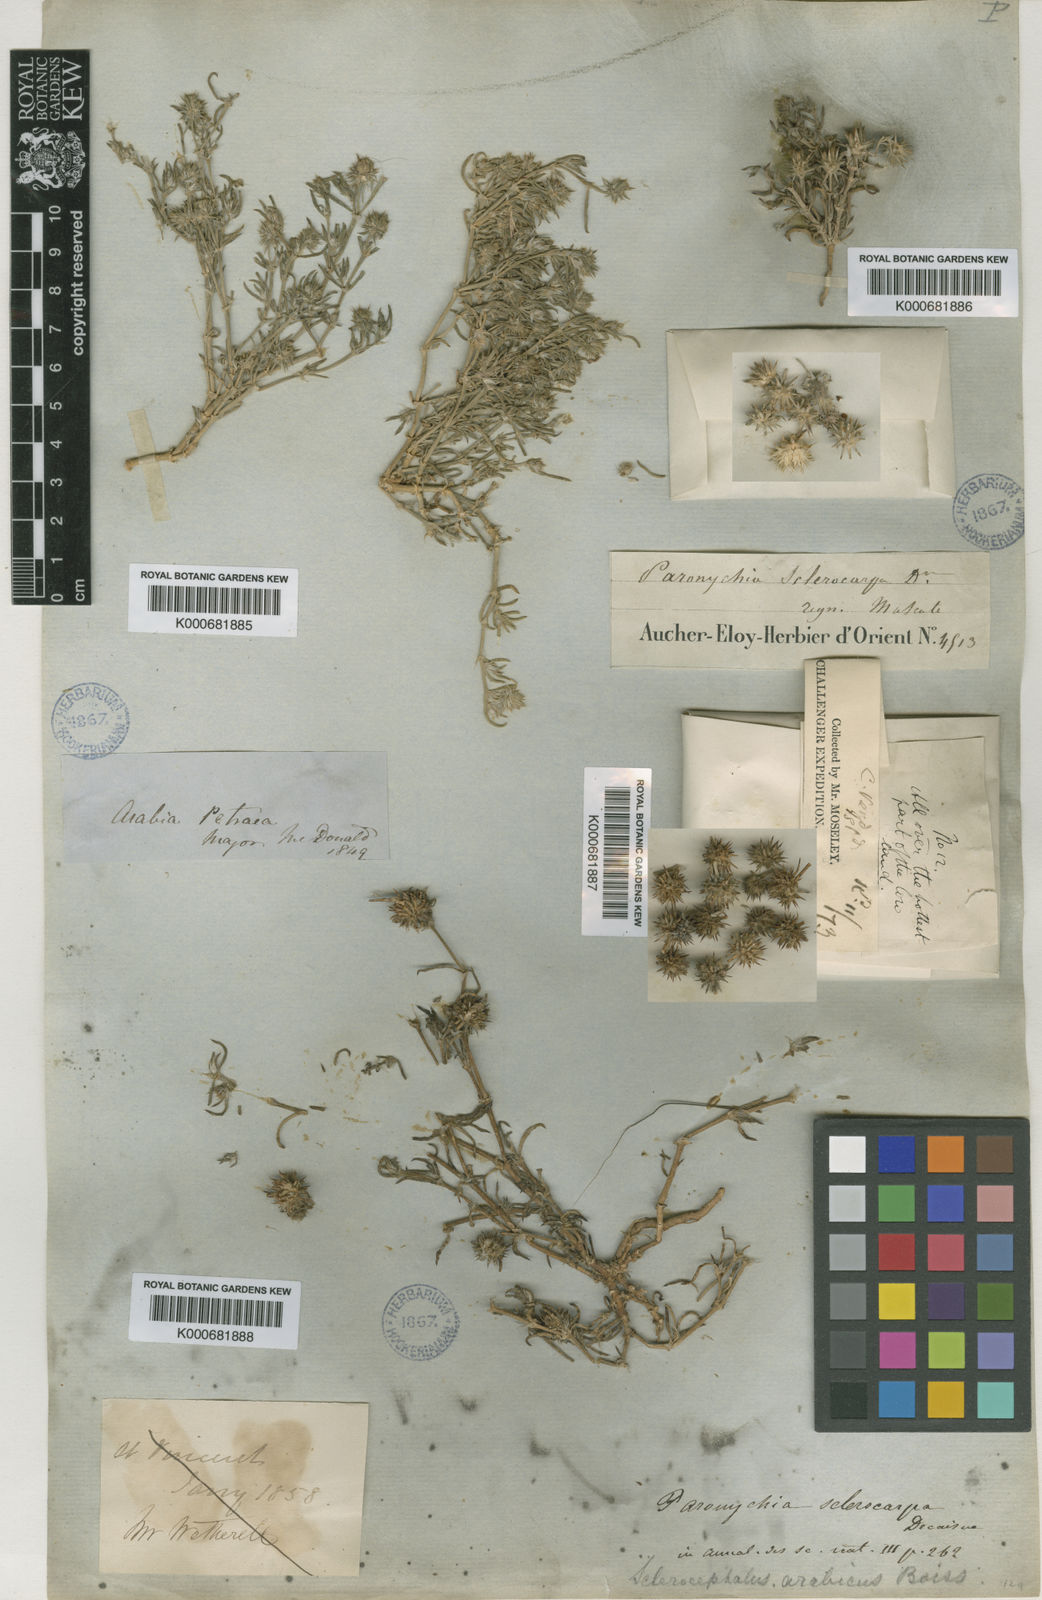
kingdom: Plantae
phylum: Tracheophyta
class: Magnoliopsida
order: Caryophyllales
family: Caryophyllaceae
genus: Gymnocarpos
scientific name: Gymnocarpos sclerocephalus
